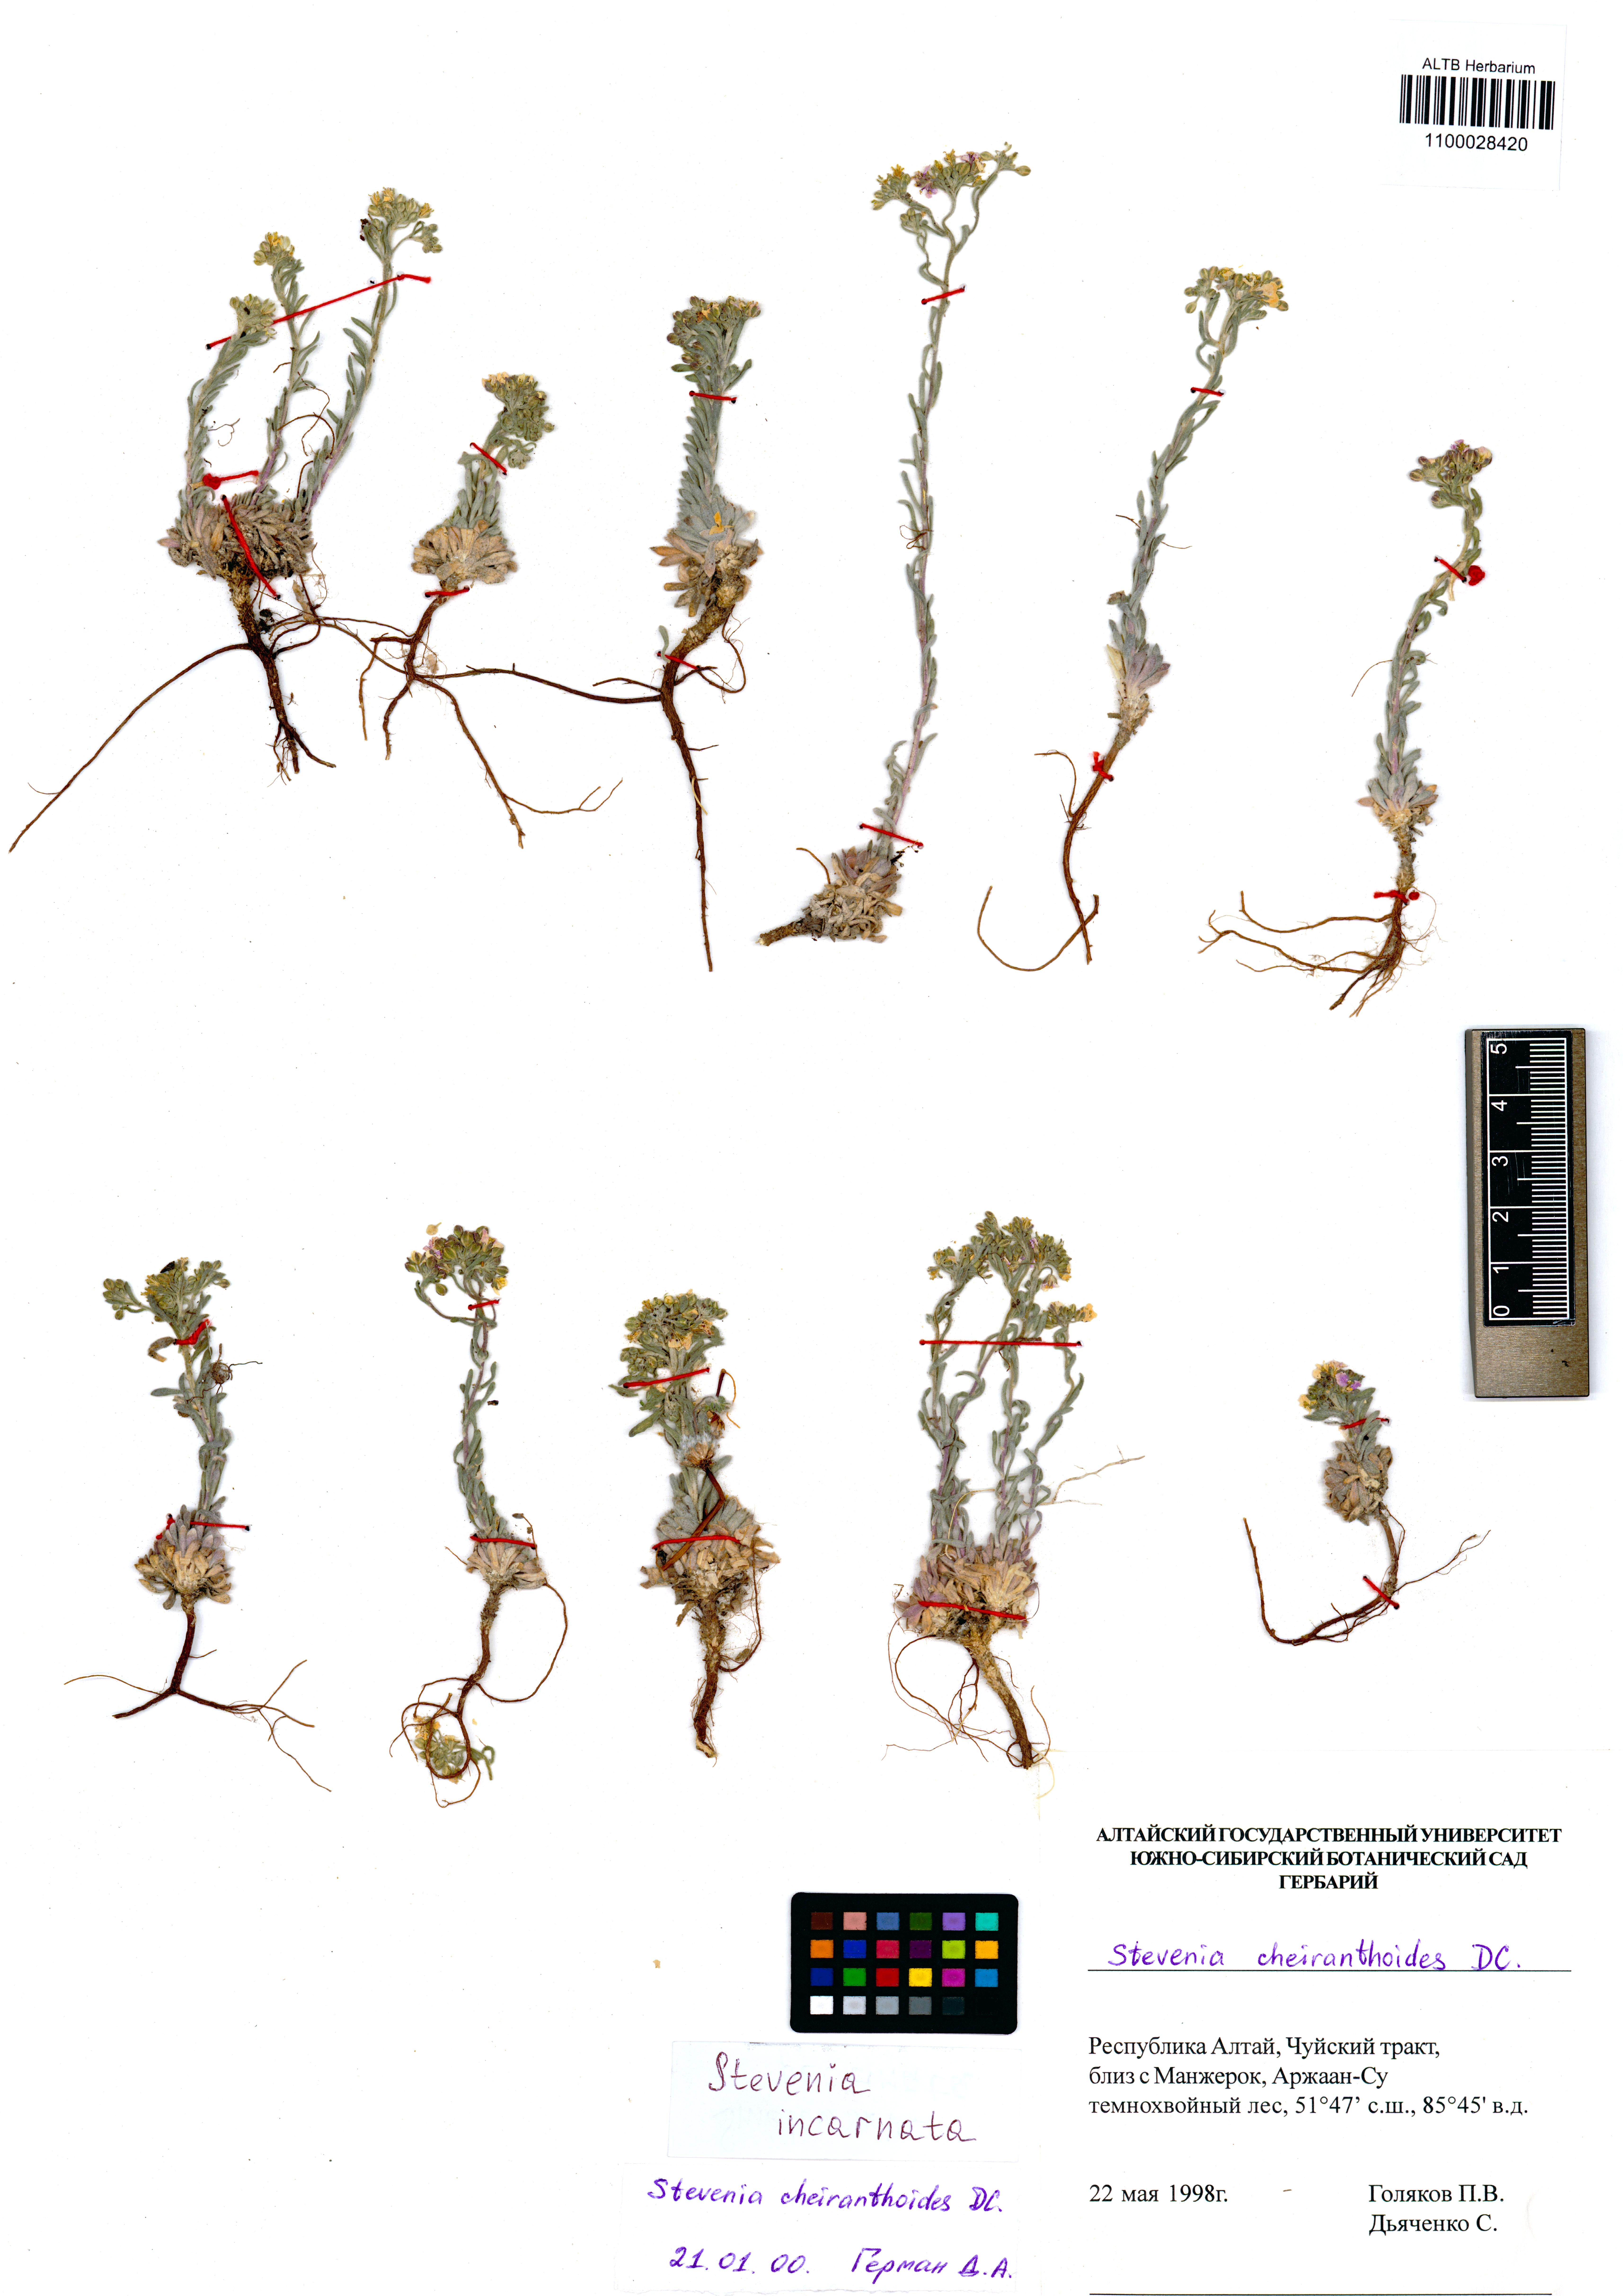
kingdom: Plantae
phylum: Tracheophyta
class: Magnoliopsida
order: Brassicales
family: Brassicaceae
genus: Stevenia
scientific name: Stevenia incarnata
